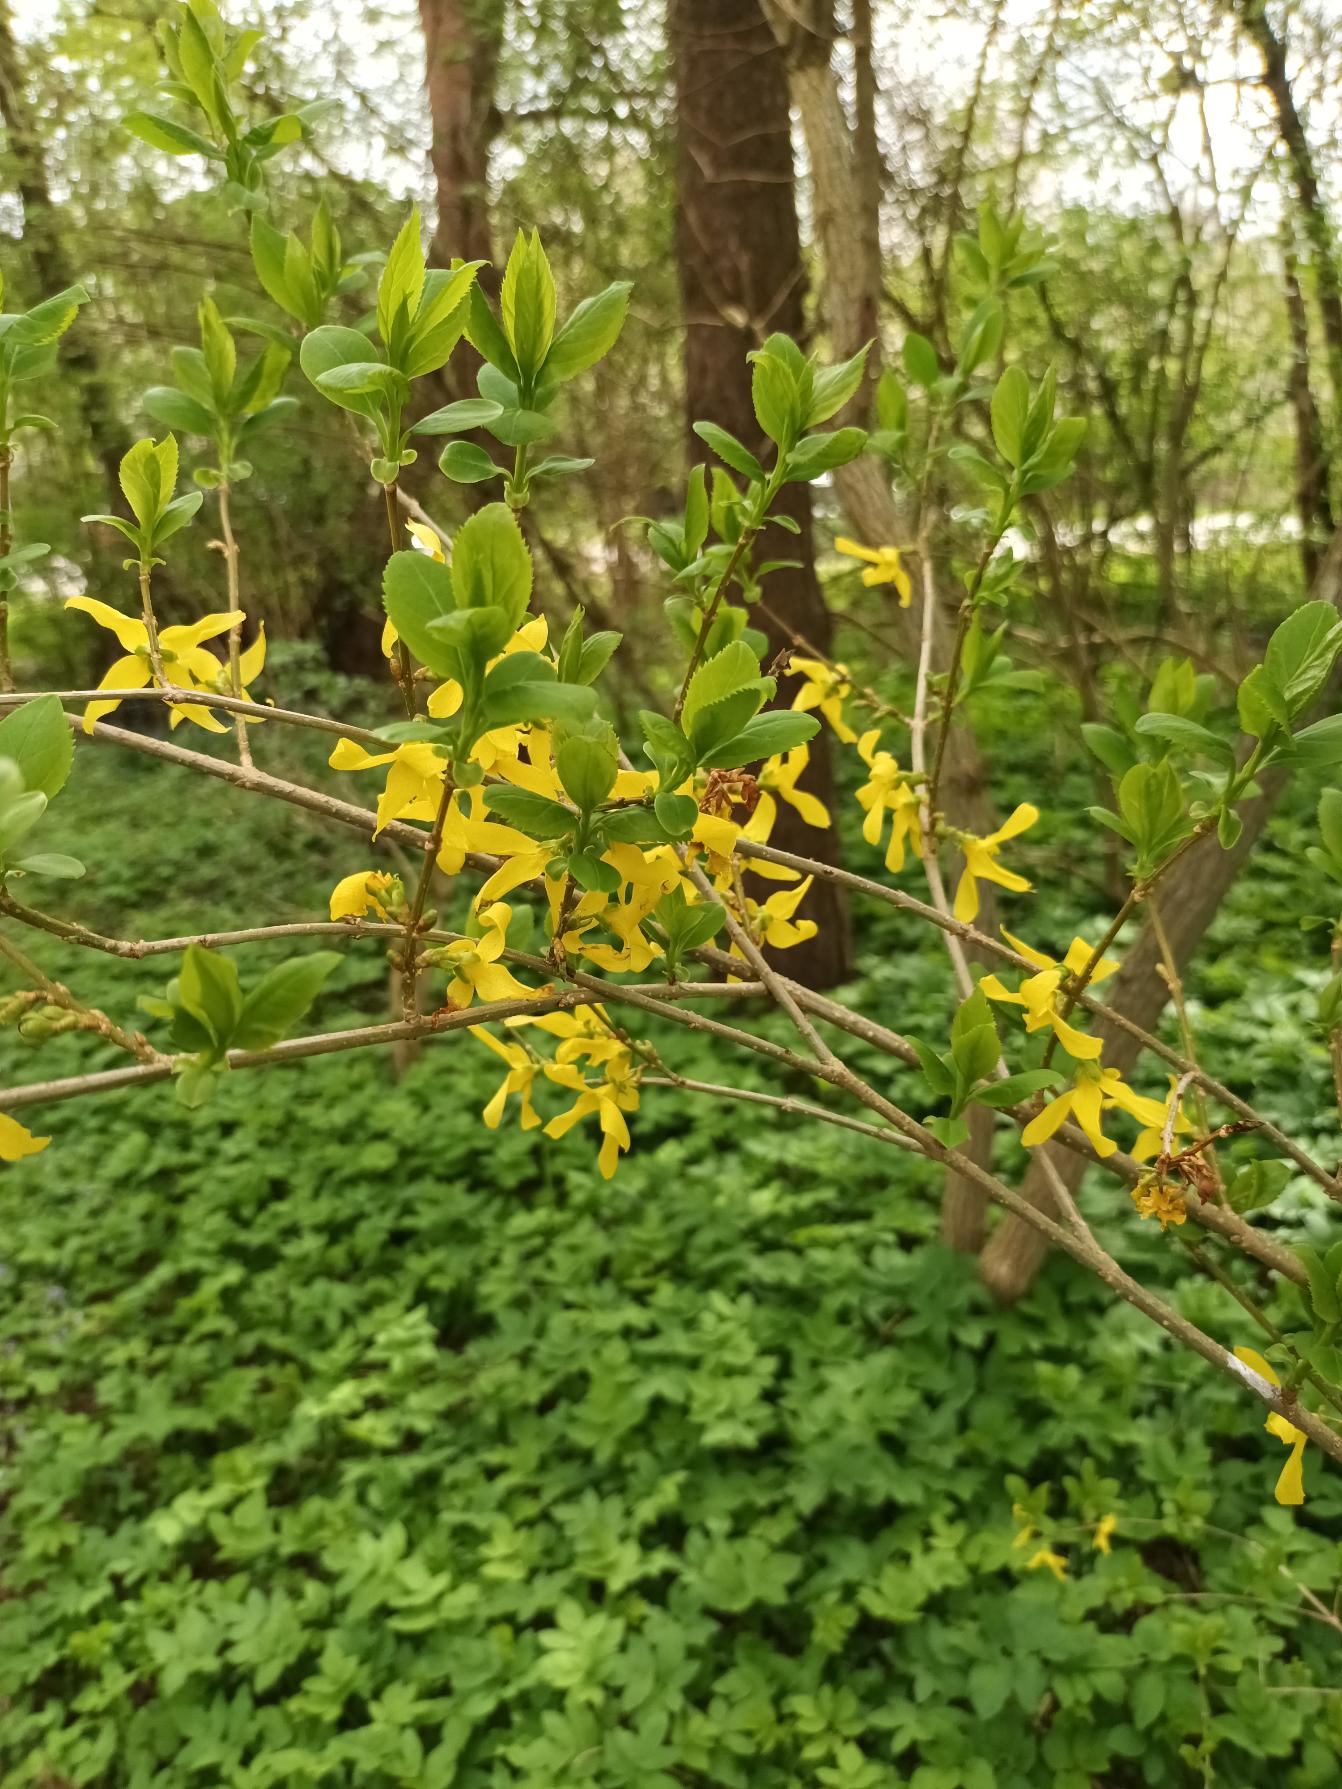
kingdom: Plantae
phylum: Tracheophyta
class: Magnoliopsida
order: Lamiales
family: Oleaceae
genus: Forsythia
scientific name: Forsythia intermedia
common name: Have-forsythia
